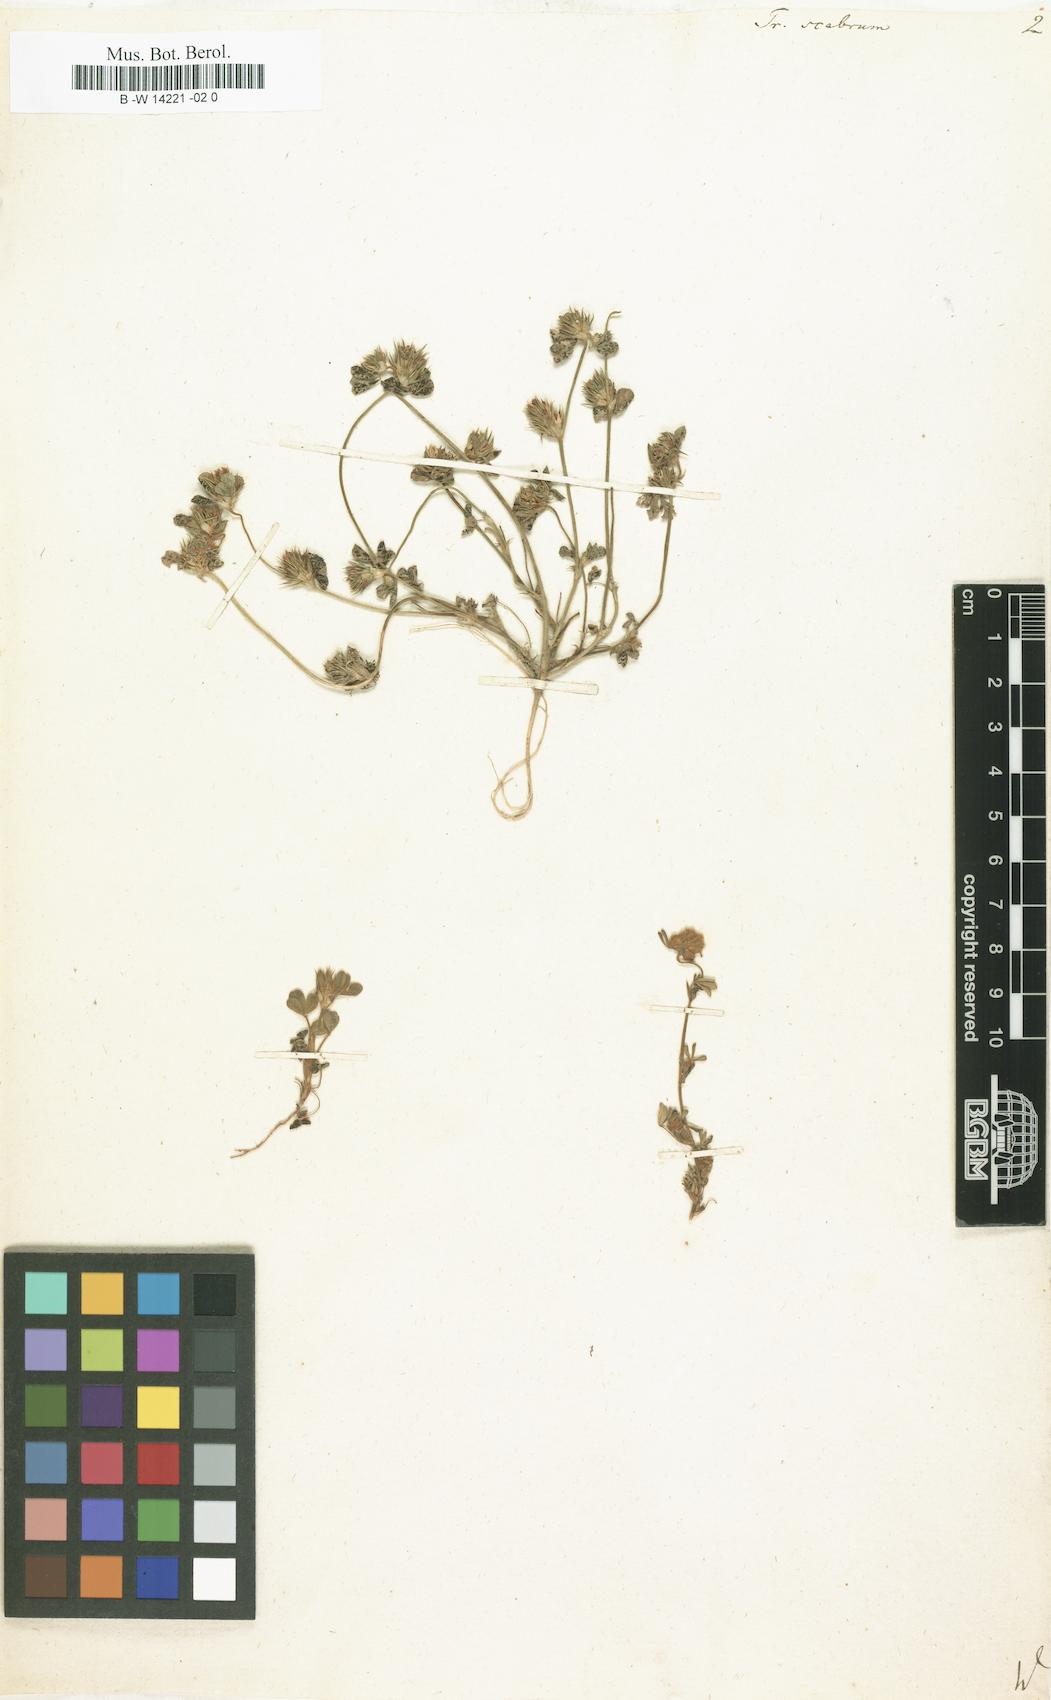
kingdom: Plantae
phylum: Tracheophyta
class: Magnoliopsida
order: Fabales
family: Fabaceae
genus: Trifolium
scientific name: Trifolium scabrum
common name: Rough clover
